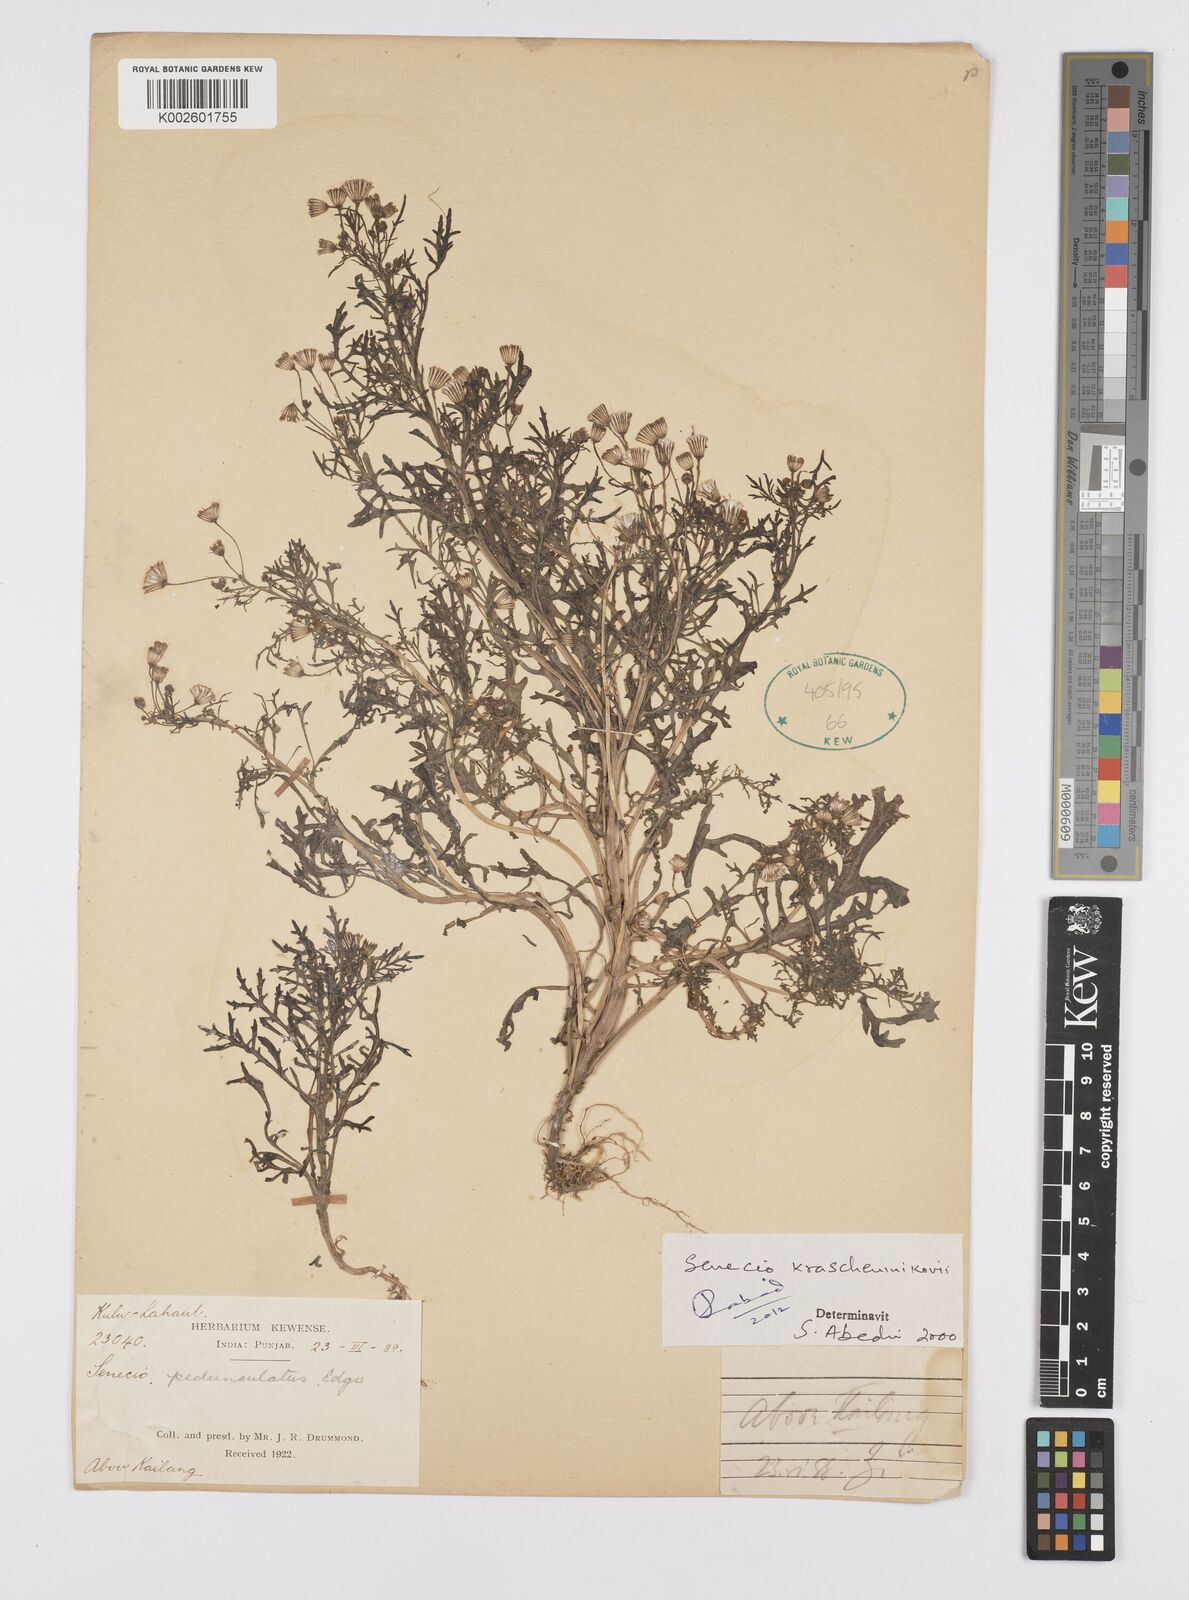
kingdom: Plantae
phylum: Tracheophyta
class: Magnoliopsida
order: Asterales
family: Asteraceae
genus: Senecio
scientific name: Senecio krascheninnikovii
